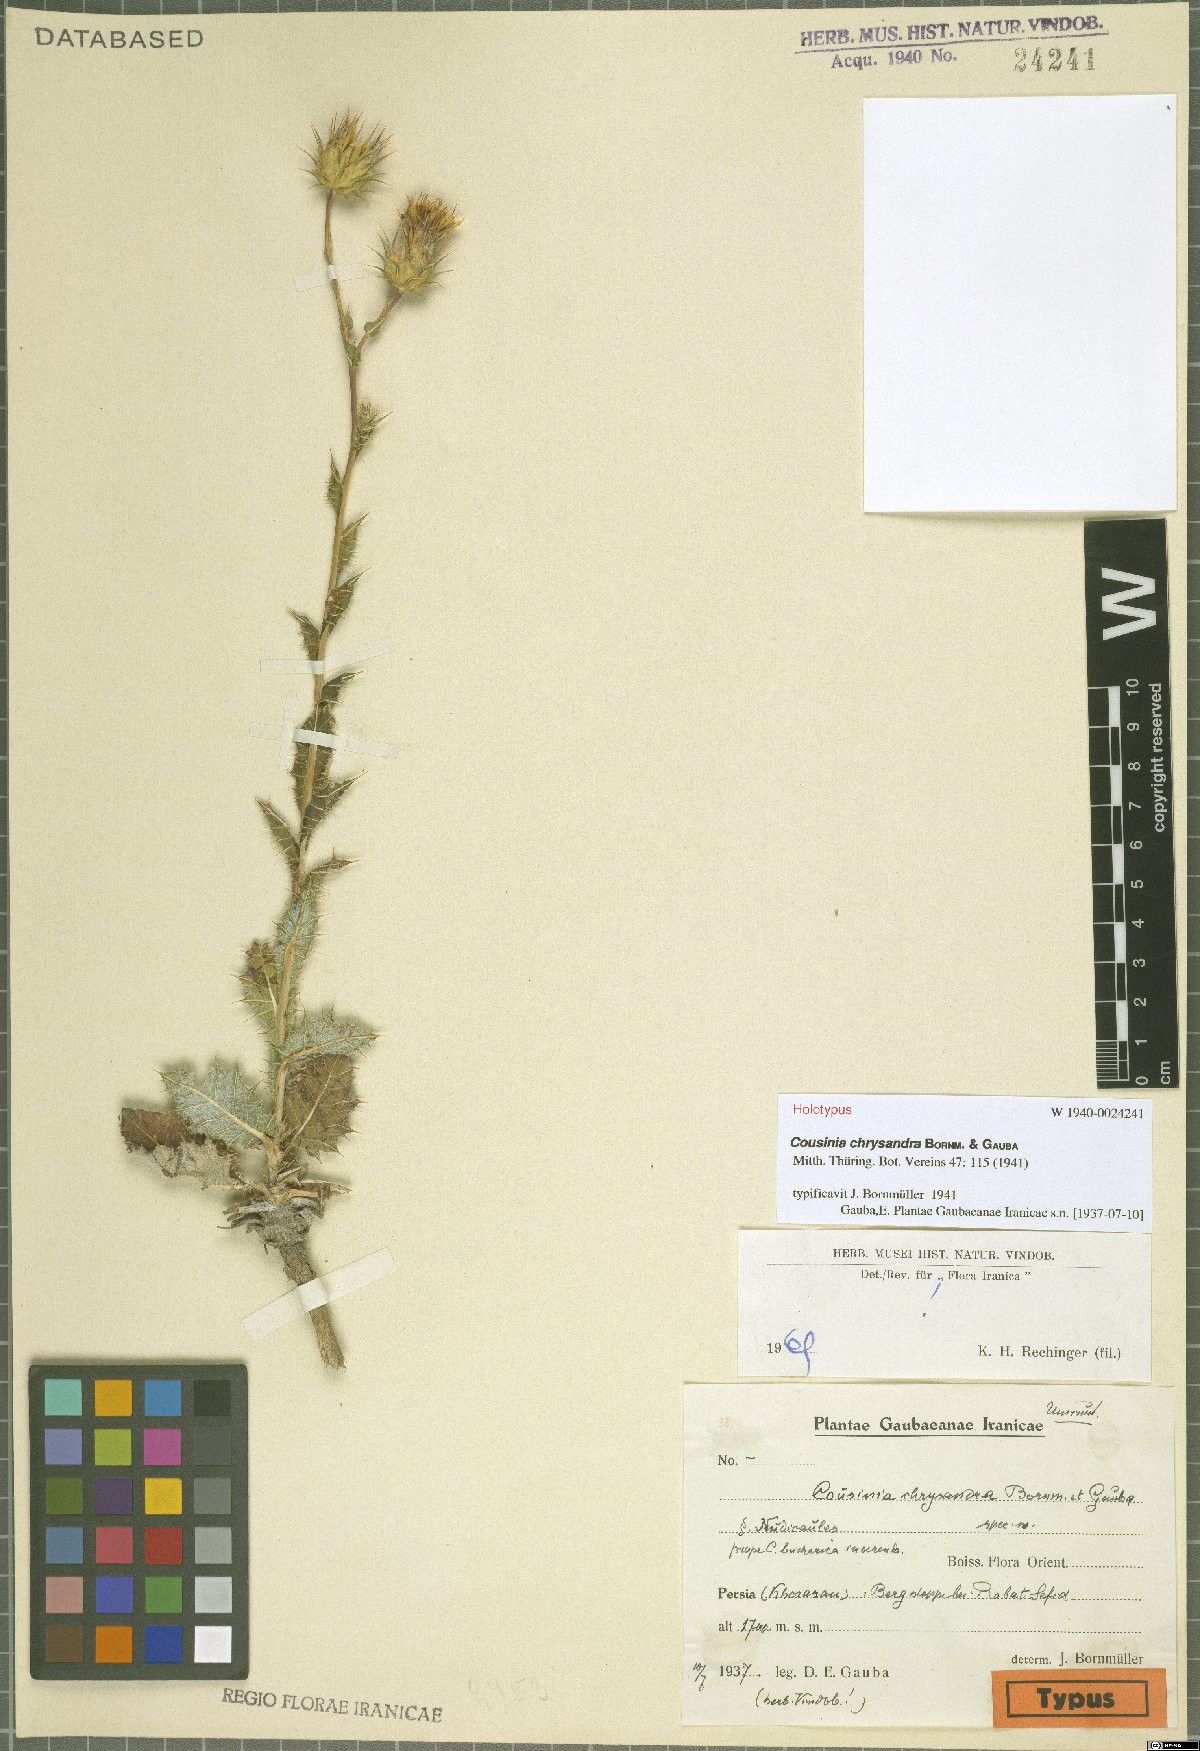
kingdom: Plantae
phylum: Tracheophyta
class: Magnoliopsida
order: Asterales
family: Asteraceae
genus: Cousinia
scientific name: Cousinia chrysandra
